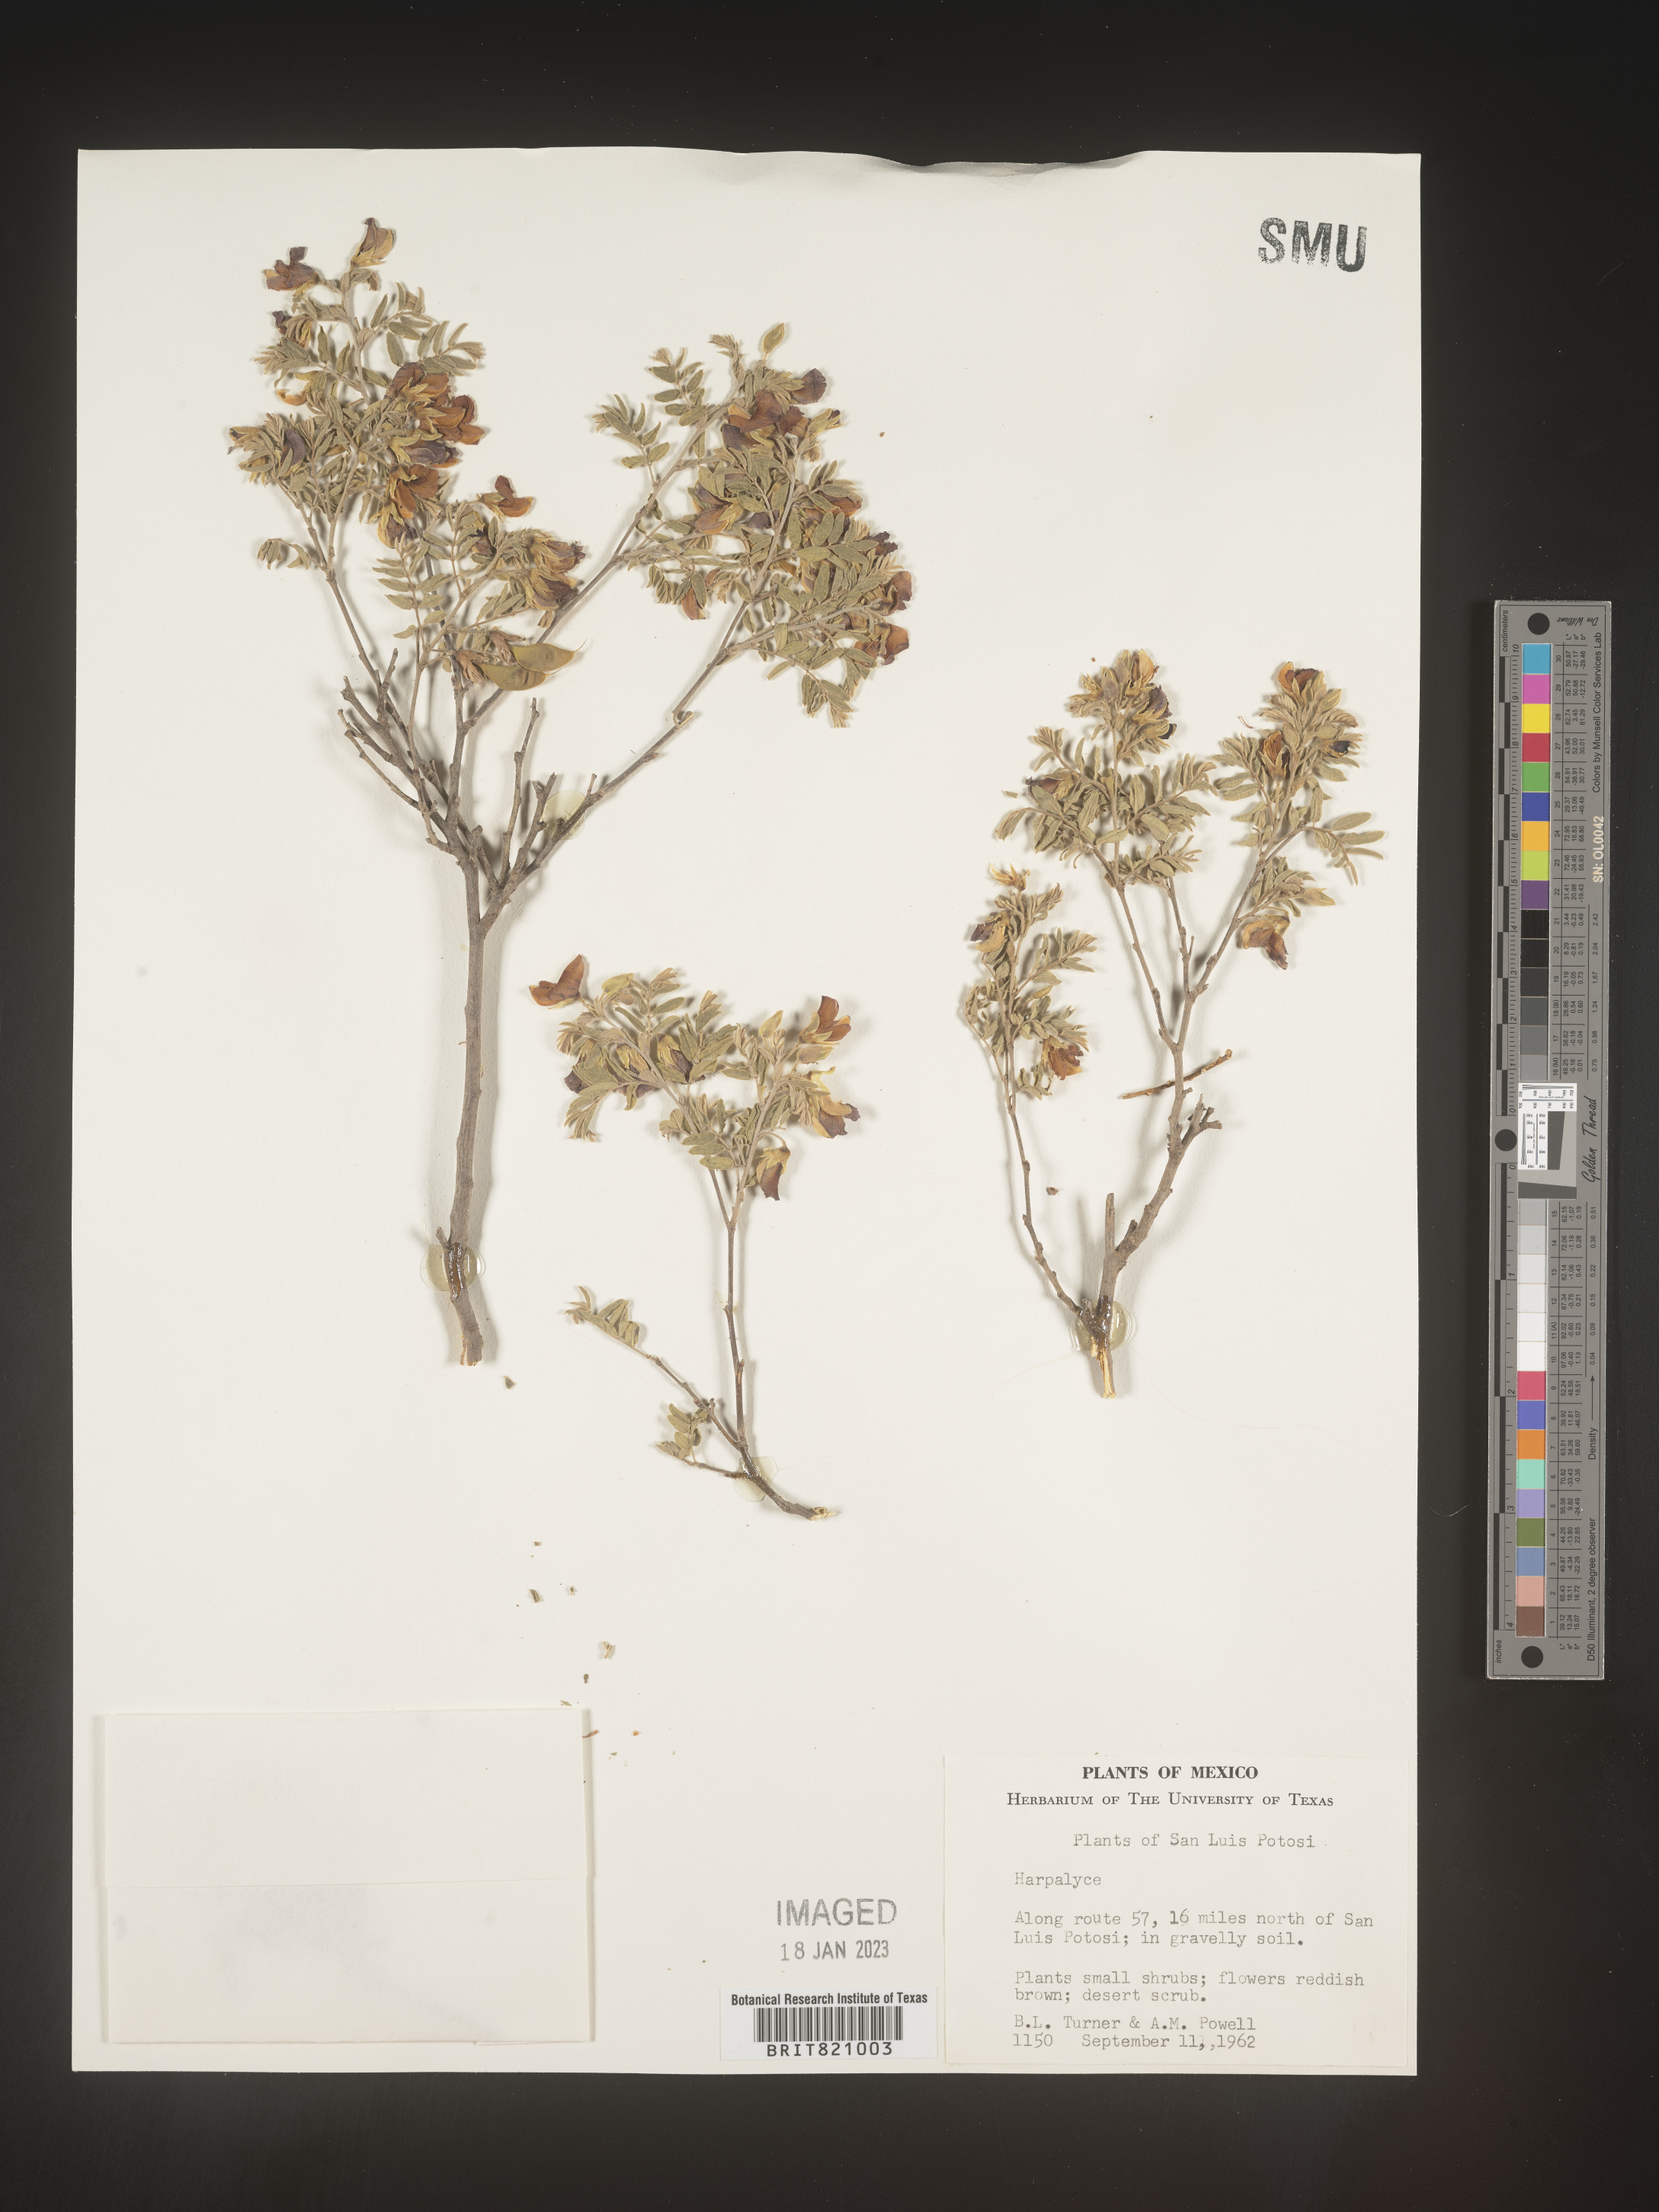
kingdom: Plantae
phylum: Tracheophyta
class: Magnoliopsida
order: Fabales
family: Fabaceae
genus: Harpalyce
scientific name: Harpalyce
